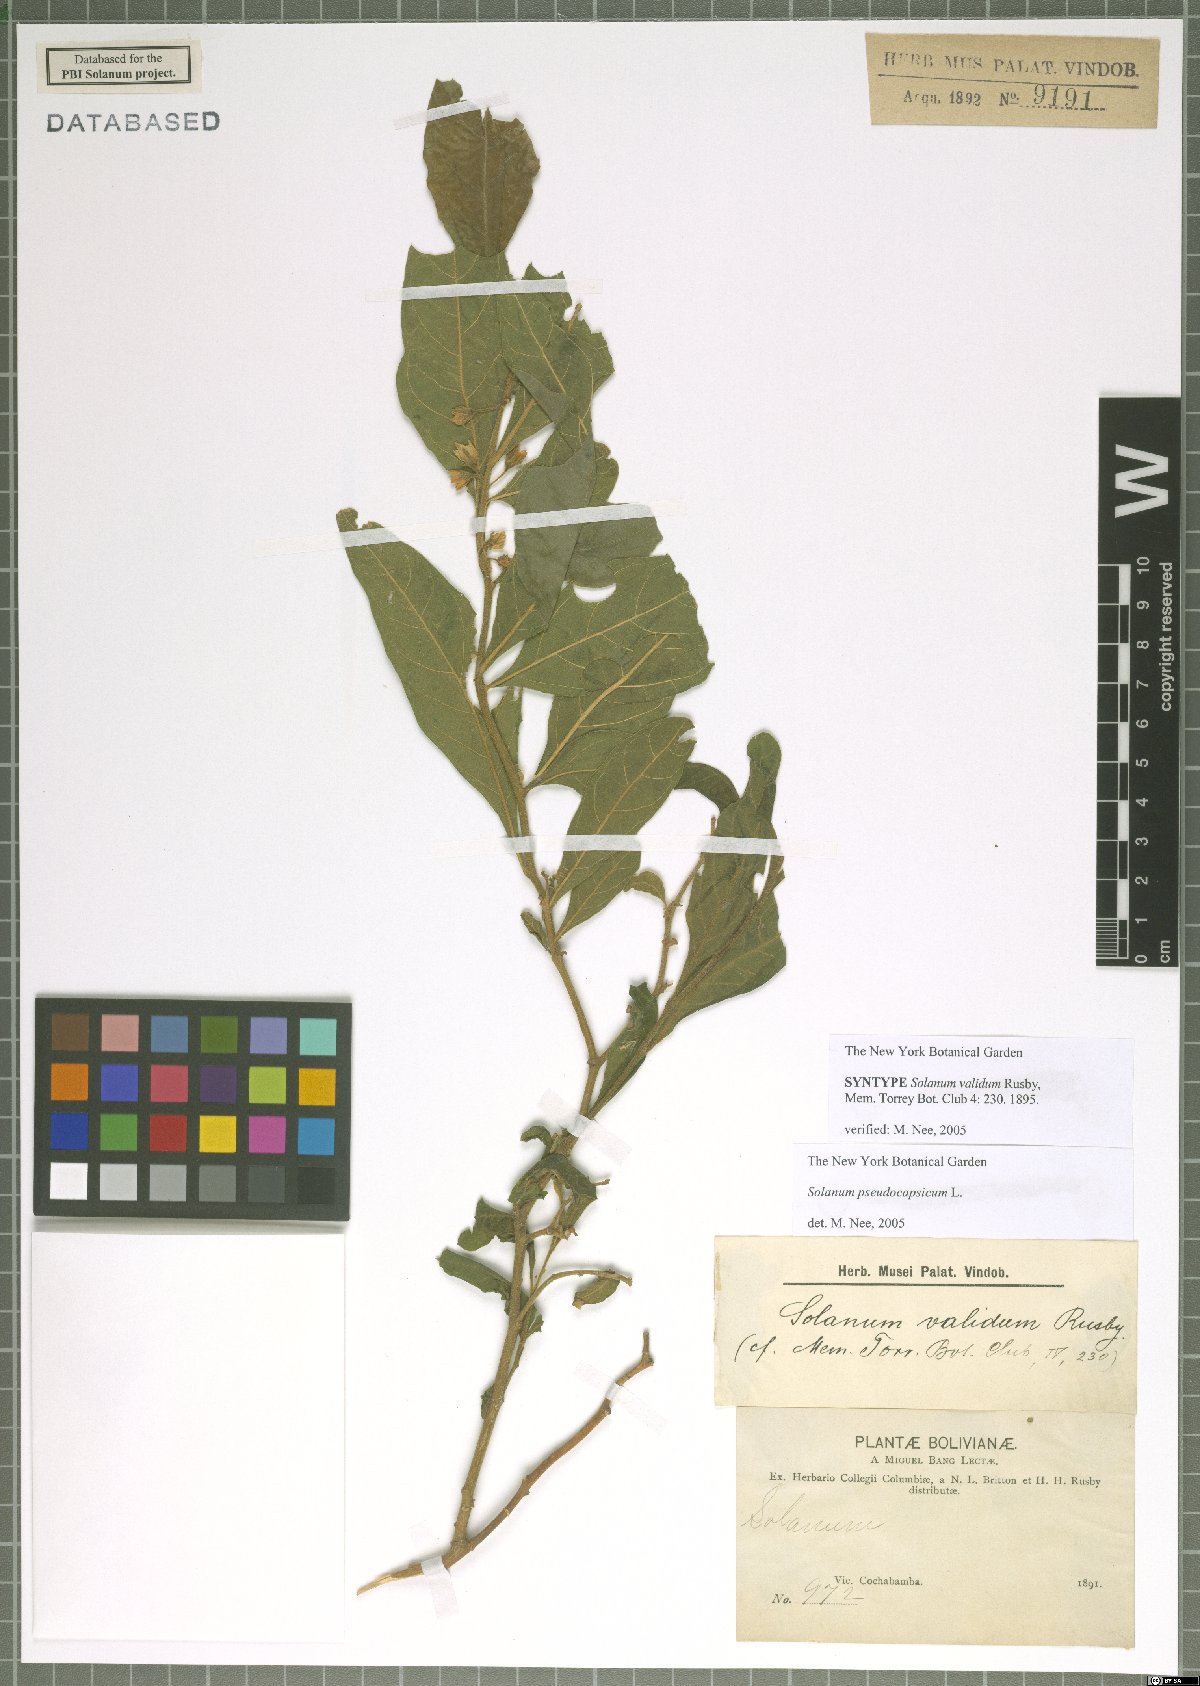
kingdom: Plantae
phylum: Tracheophyta
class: Magnoliopsida
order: Solanales
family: Solanaceae
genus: Solanum
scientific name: Solanum pseudocapsicum
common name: Jerusalem cherry
